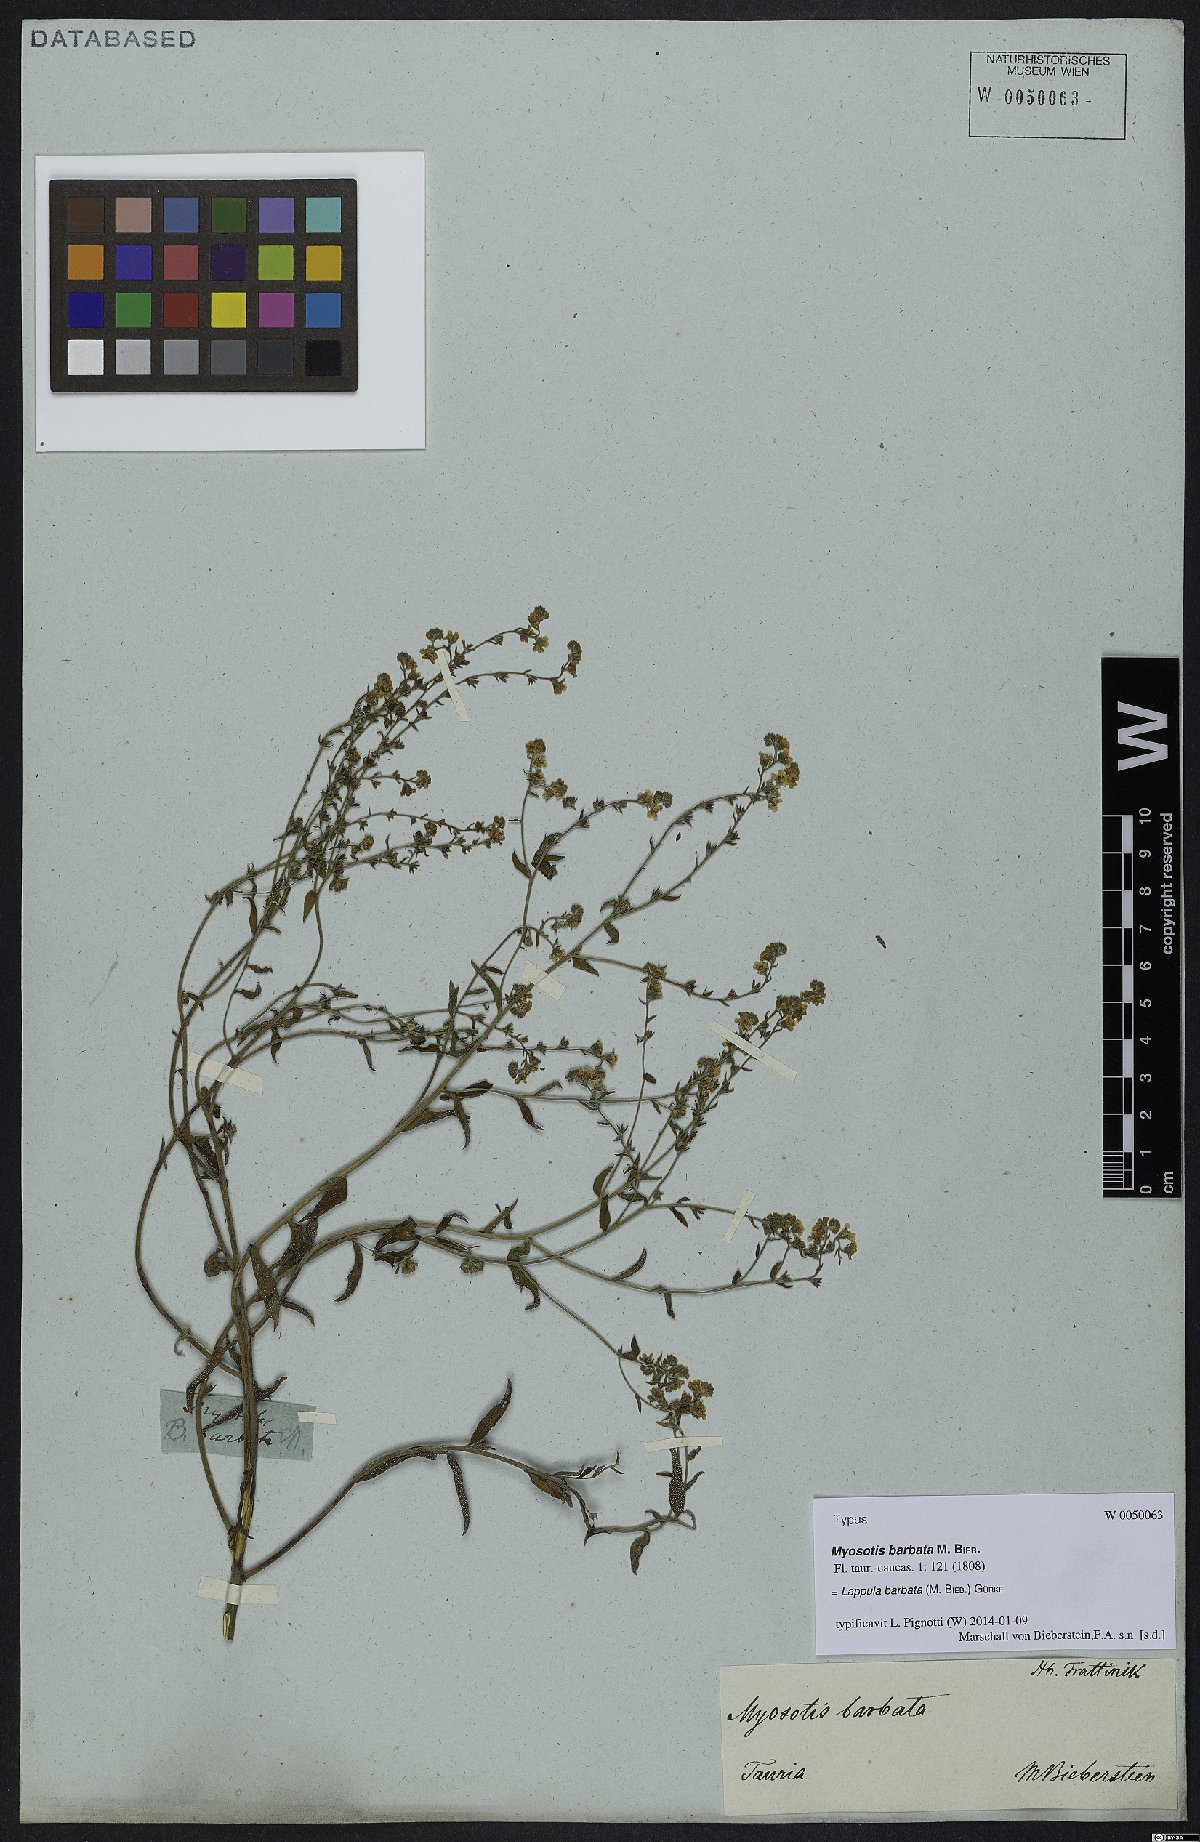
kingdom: Plantae
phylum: Tracheophyta
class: Magnoliopsida
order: Boraginales
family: Boraginaceae
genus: Lappula
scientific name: Lappula barbata
